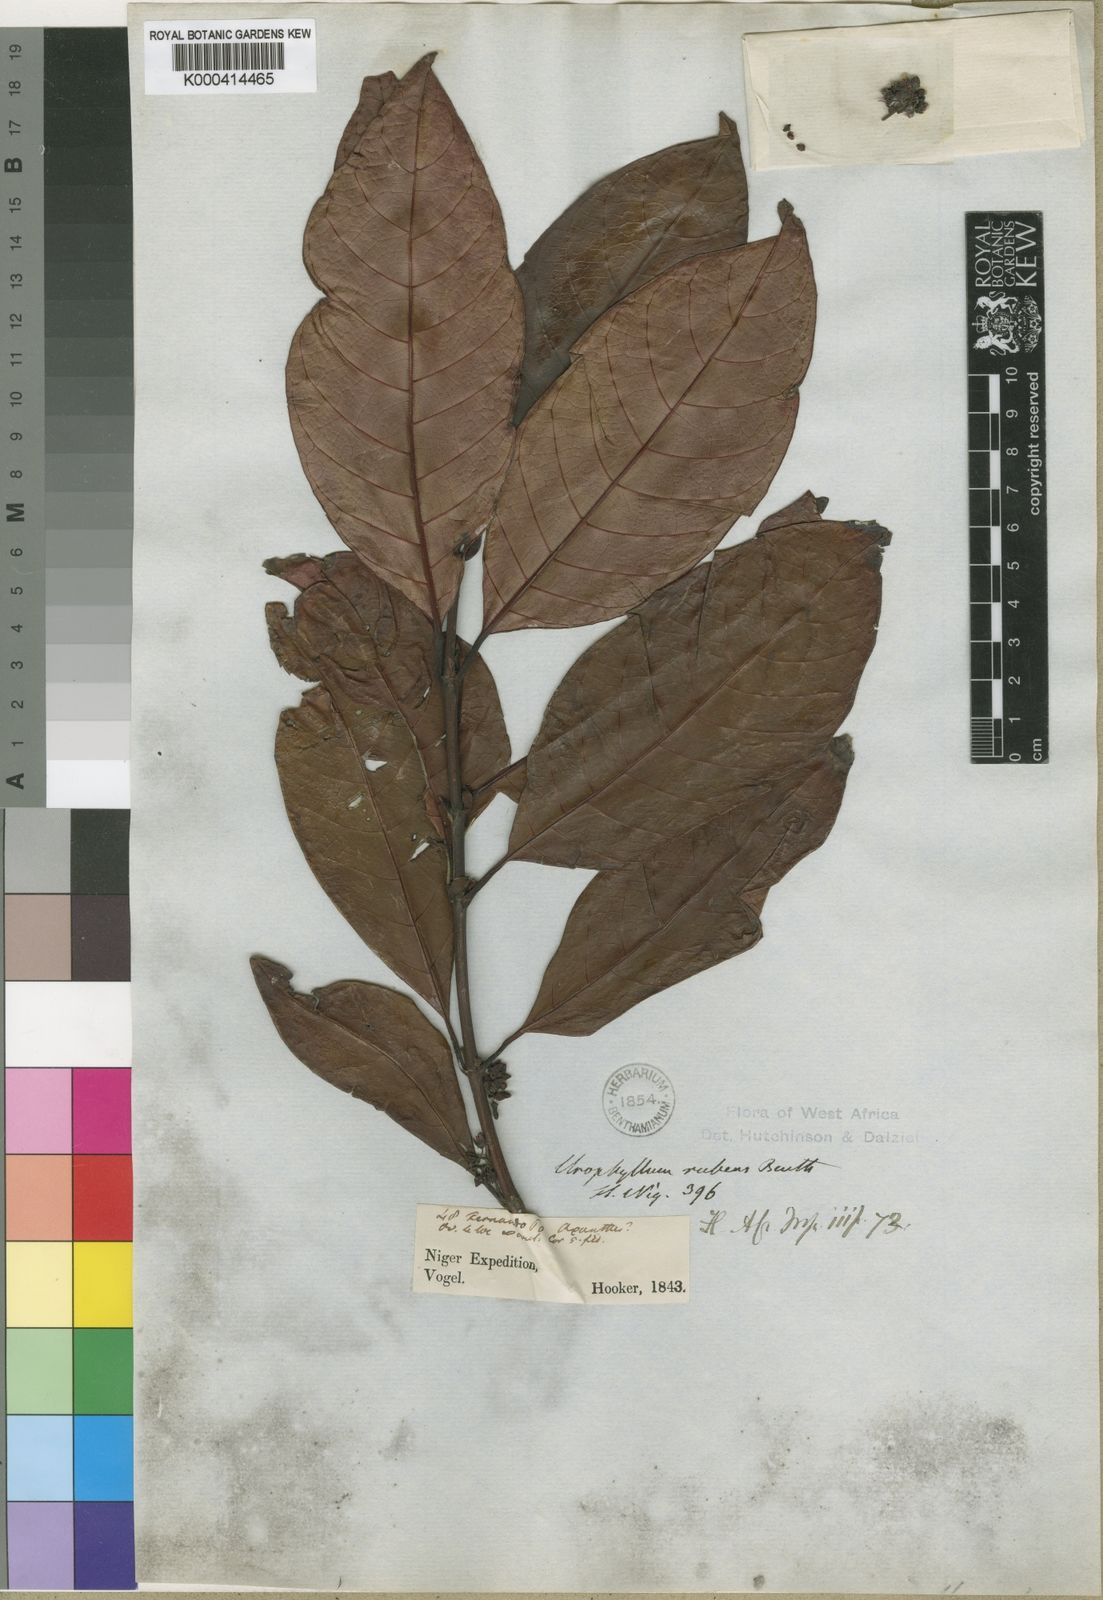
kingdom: Plantae
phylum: Tracheophyta
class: Magnoliopsida
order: Gentianales
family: Rubiaceae
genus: Pauridiantha
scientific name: Pauridiantha rubens
